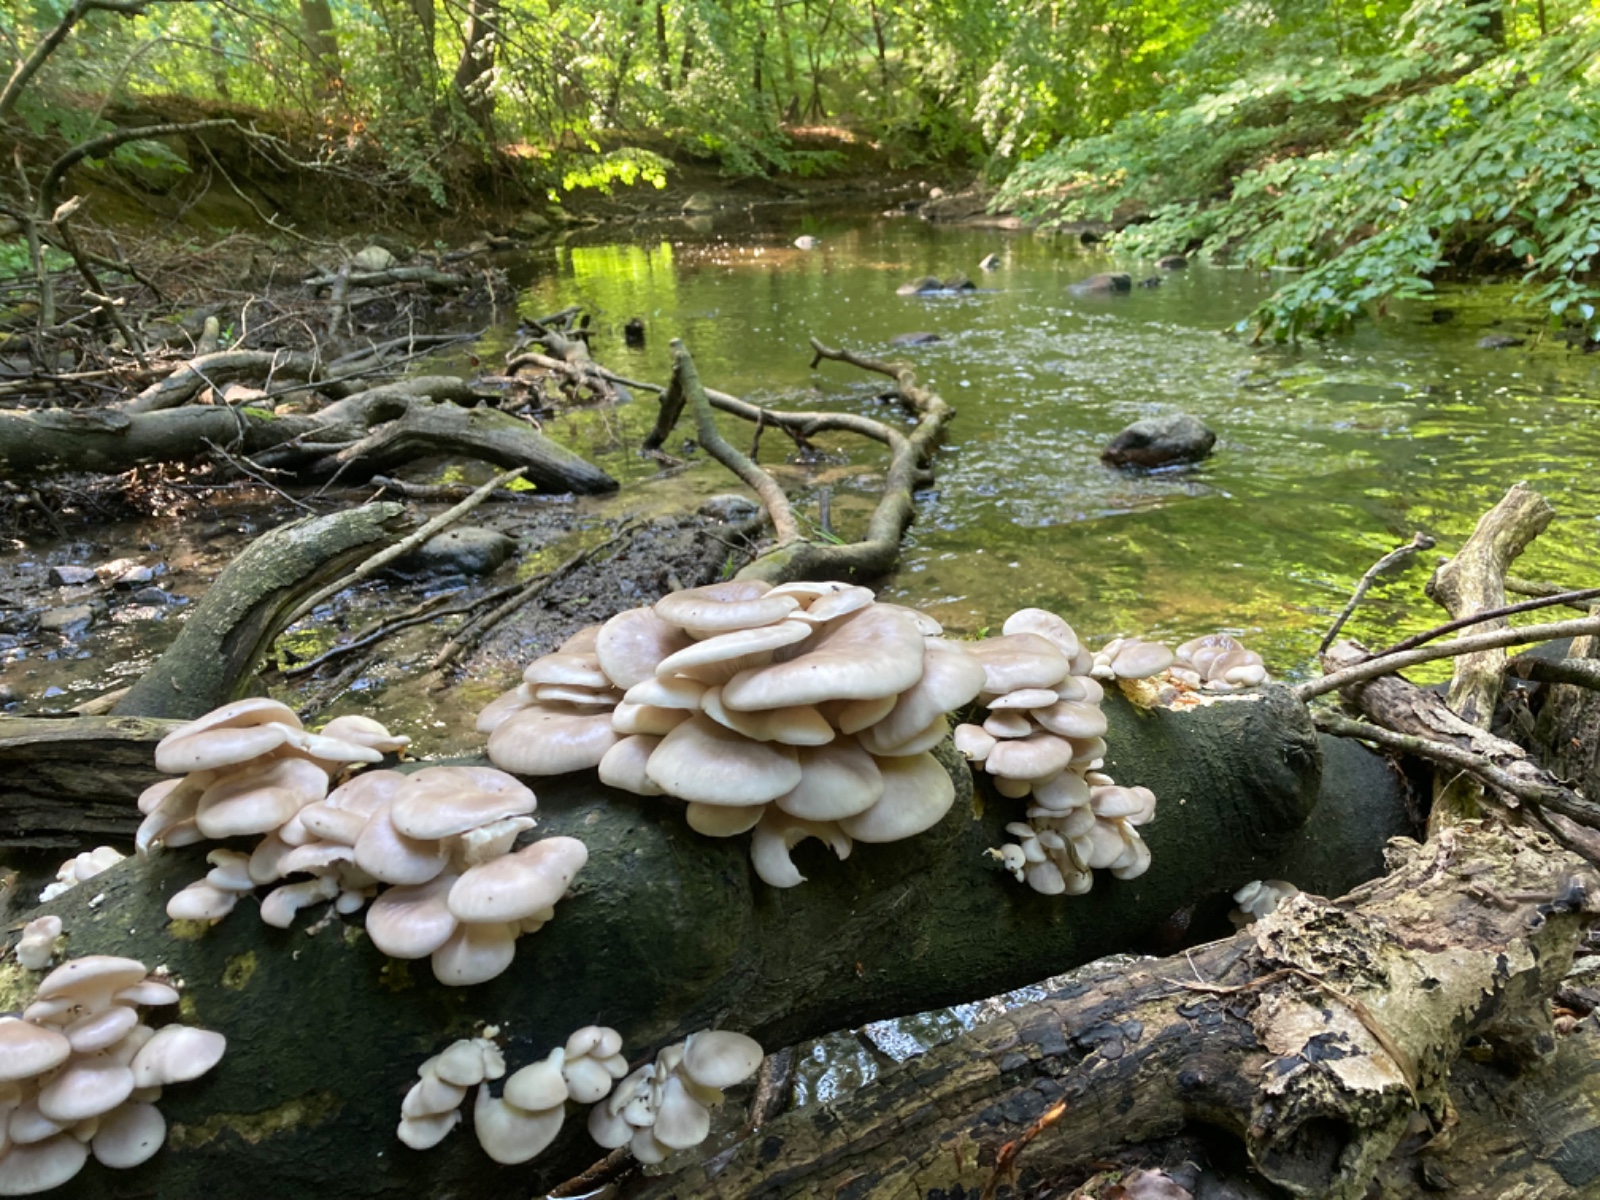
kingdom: Fungi
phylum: Basidiomycota
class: Agaricomycetes
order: Agaricales
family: Pleurotaceae
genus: Pleurotus
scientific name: Pleurotus pulmonarius
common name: sommer-østershat
